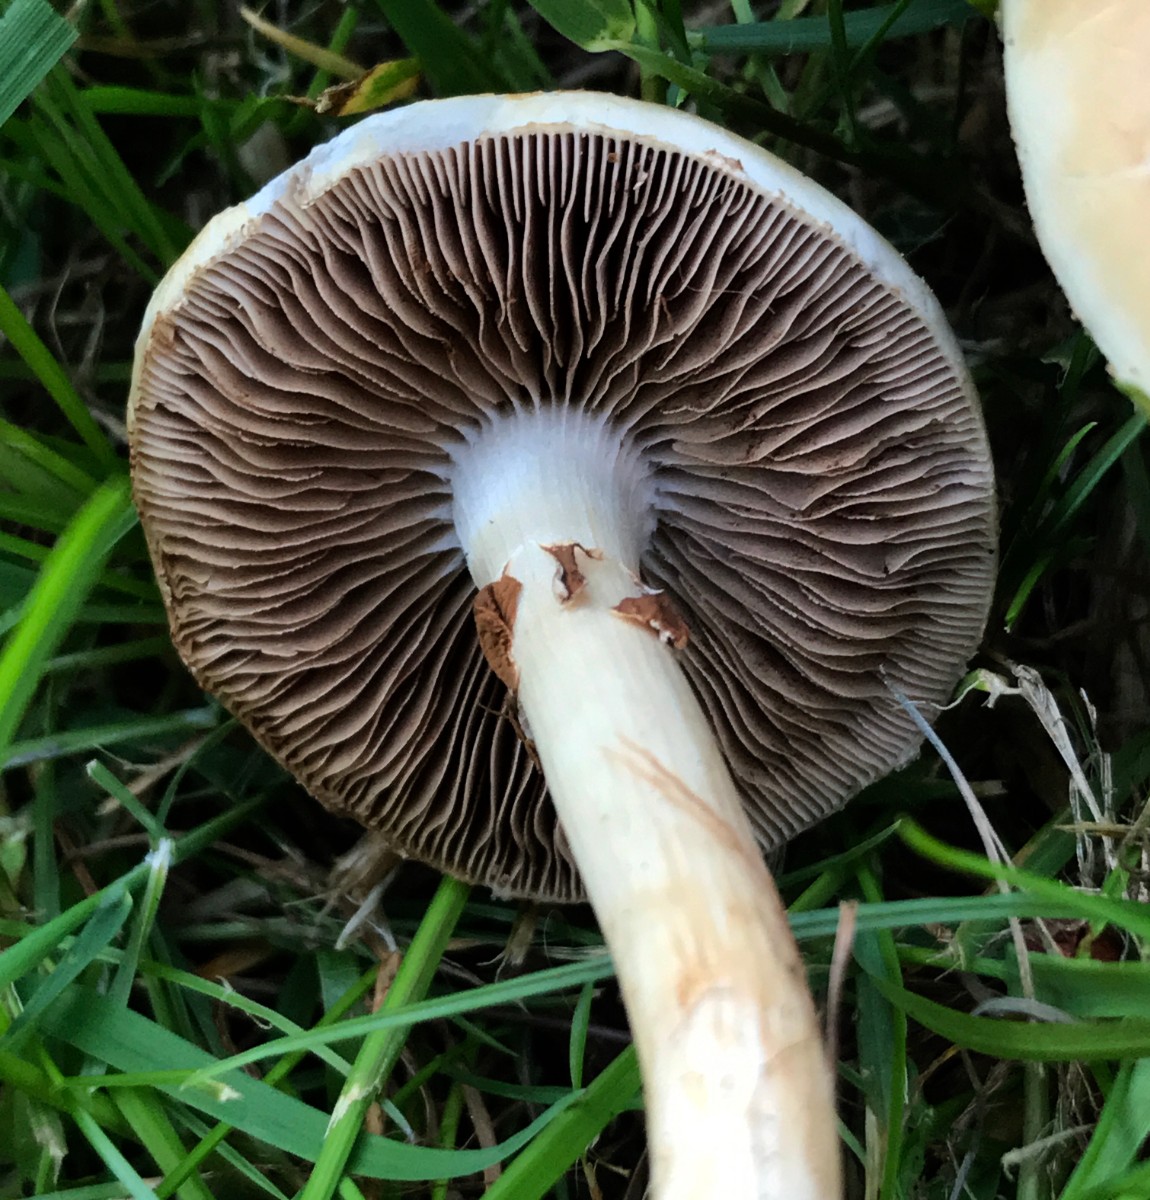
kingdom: Fungi
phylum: Basidiomycota
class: Agaricomycetes
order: Agaricales
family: Strophariaceae
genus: Agrocybe
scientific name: Agrocybe praecox
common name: tidlig agerhat
